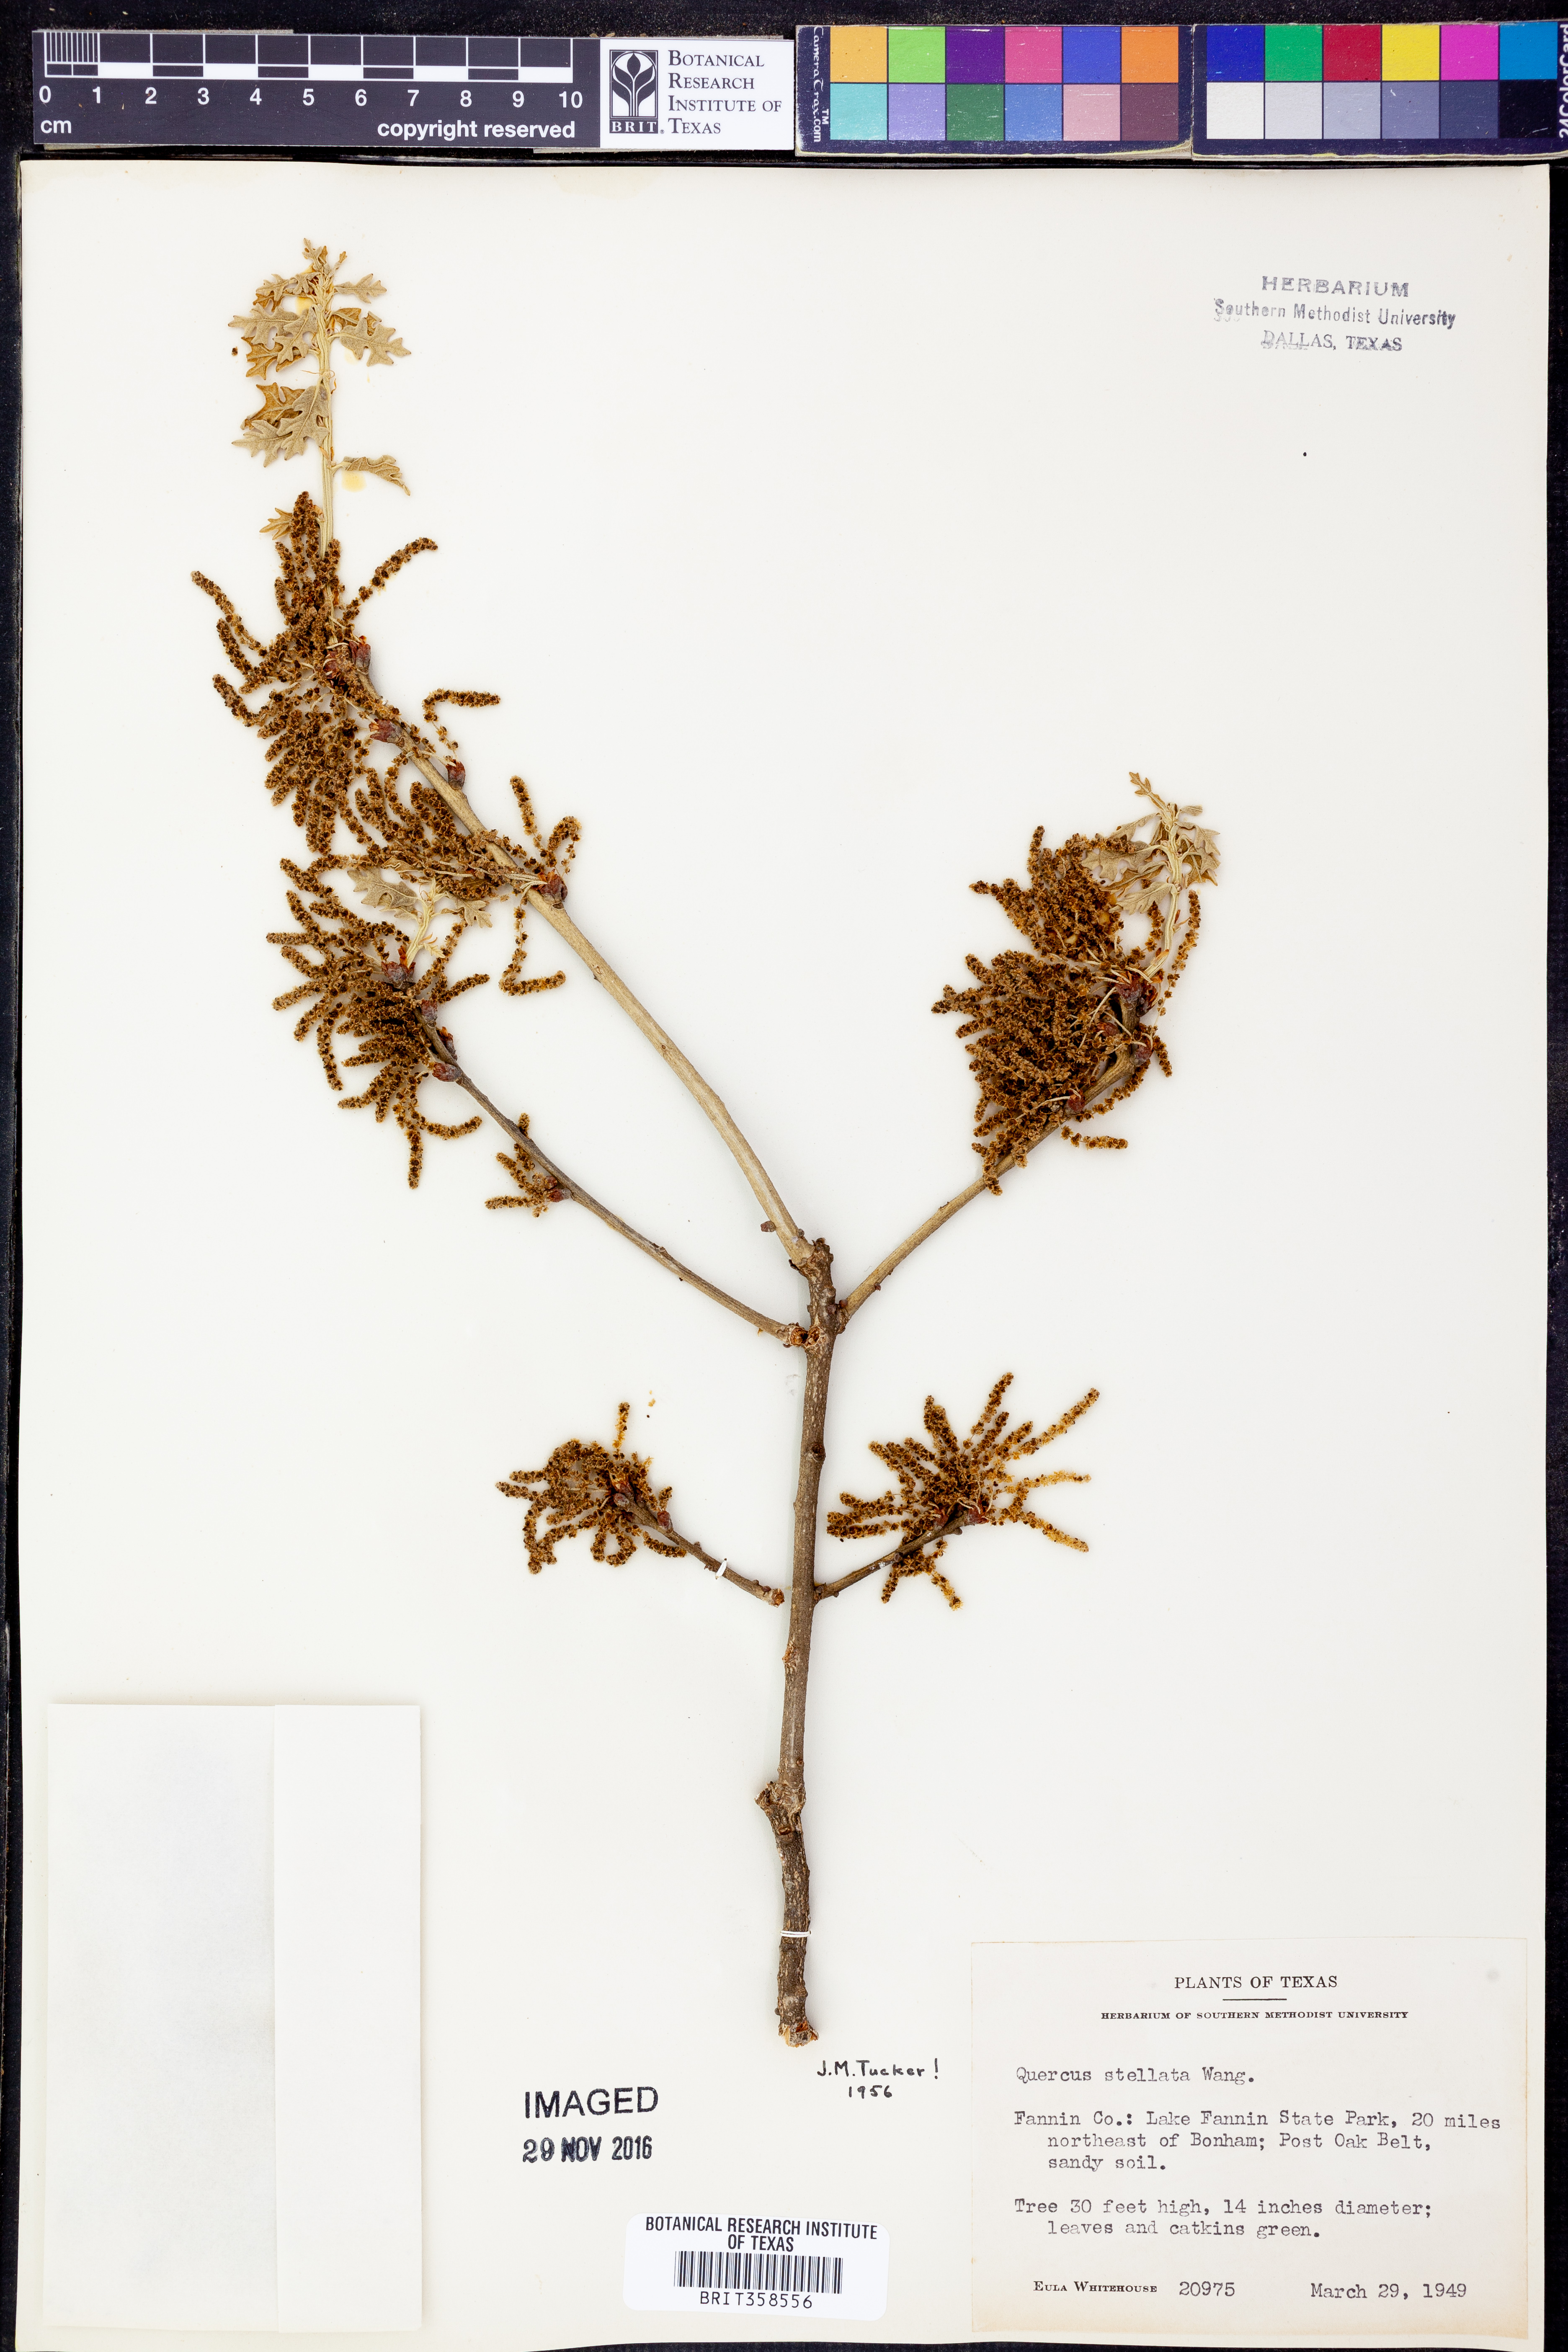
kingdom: Plantae
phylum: Tracheophyta
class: Magnoliopsida
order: Fagales
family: Fagaceae
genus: Quercus
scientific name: Quercus stellata
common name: Post oak
